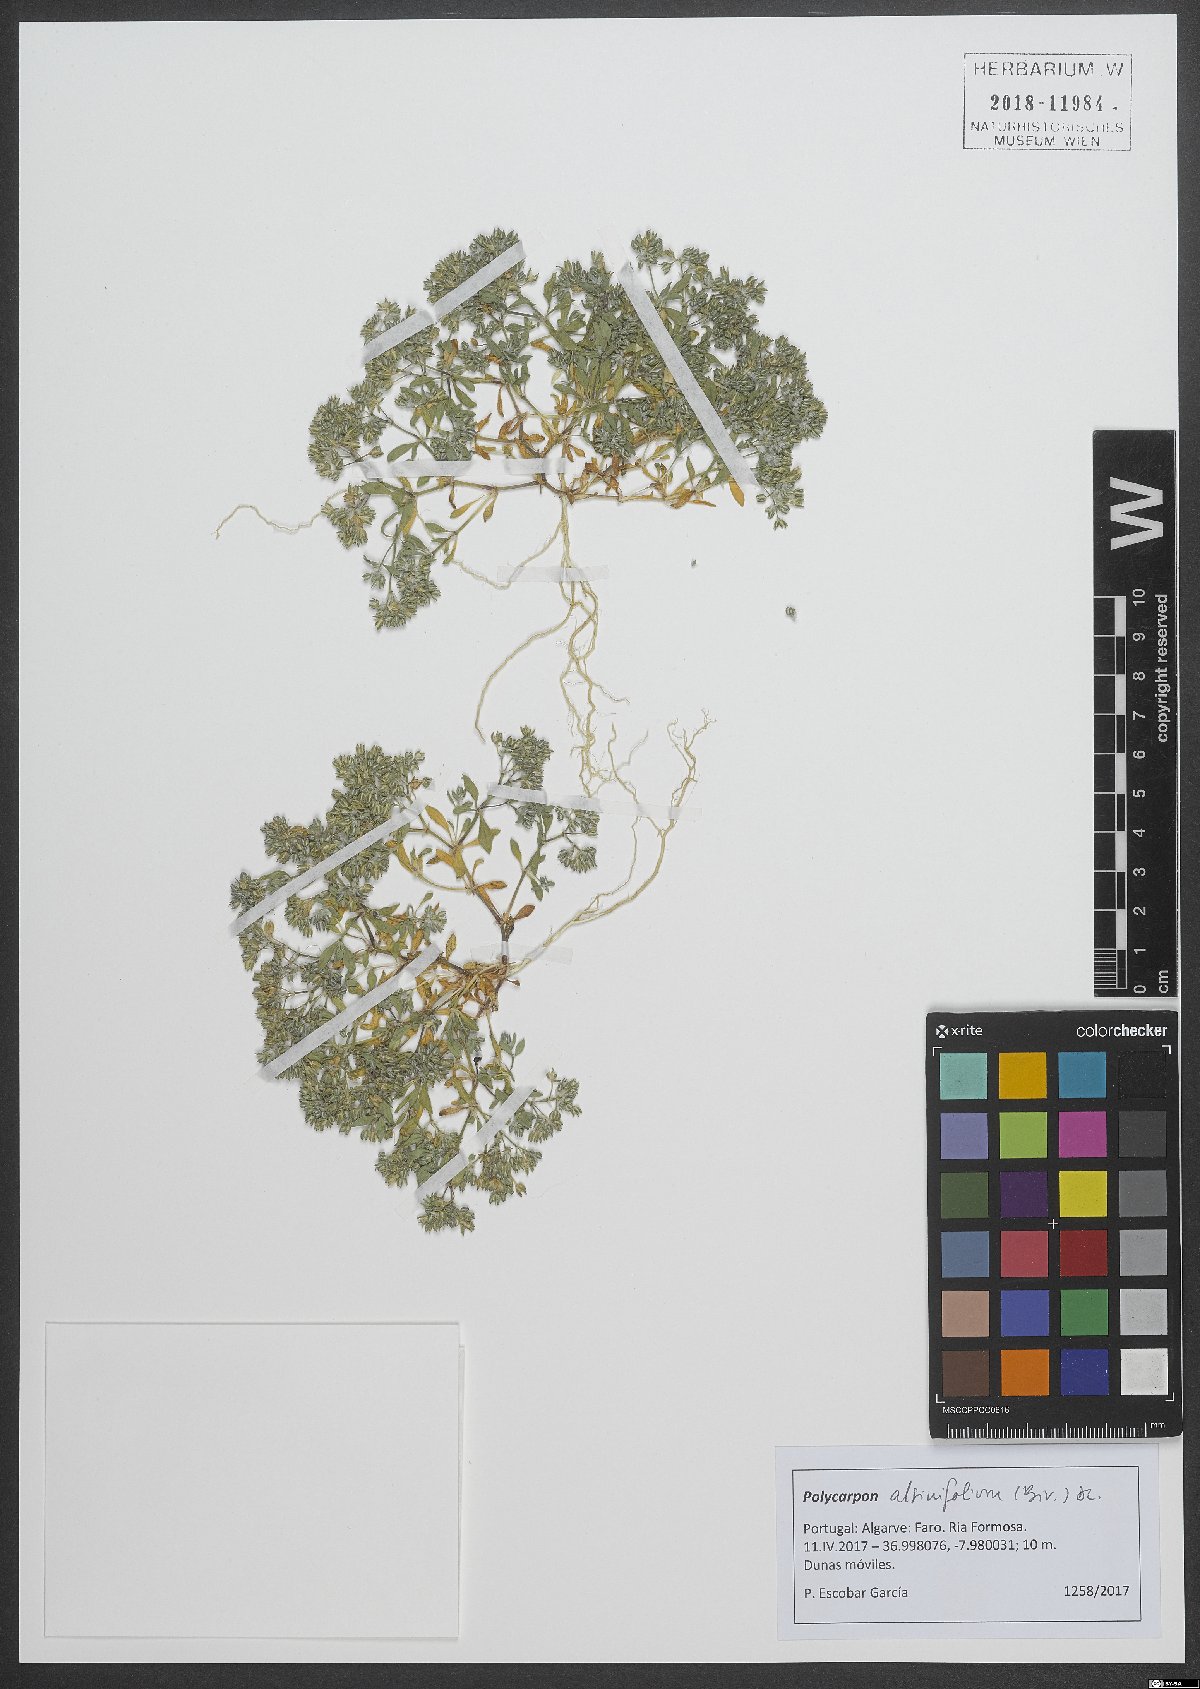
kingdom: Plantae
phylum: Tracheophyta
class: Magnoliopsida
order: Caryophyllales
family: Caryophyllaceae
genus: Polycarpon
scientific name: Polycarpon alsinifolium
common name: Fourleaf manyseed
